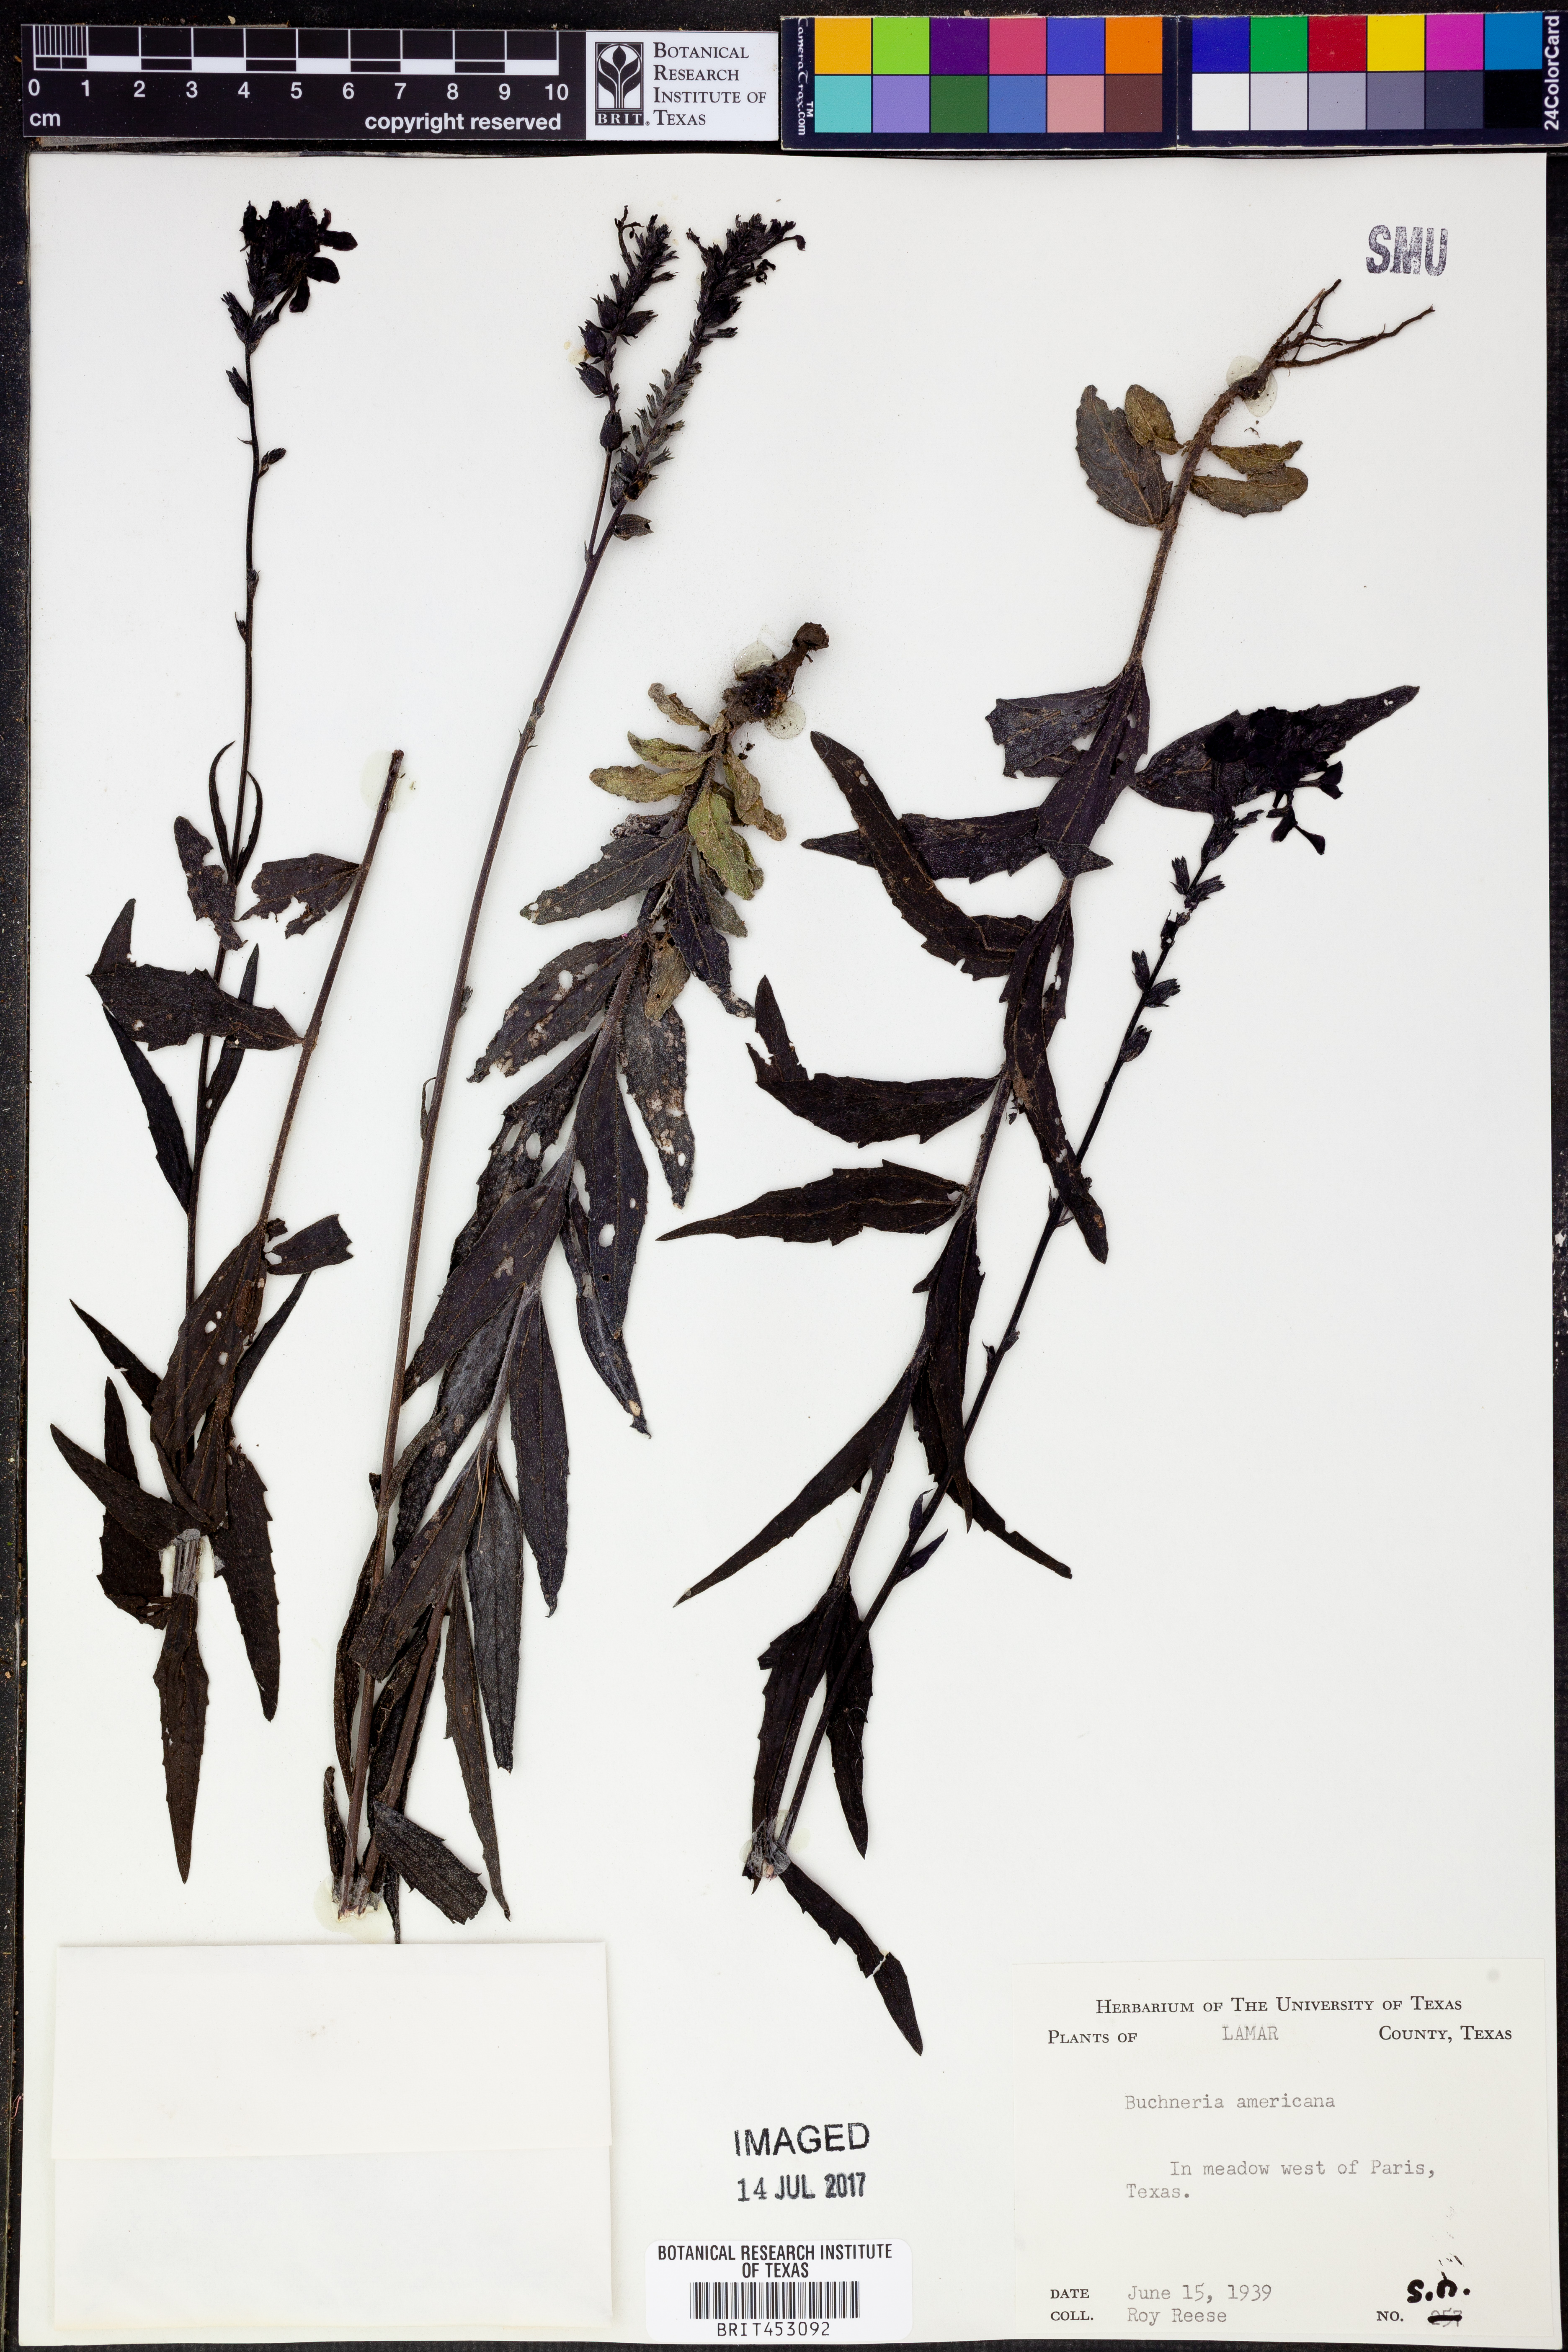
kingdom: Plantae
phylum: Tracheophyta
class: Magnoliopsida
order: Lamiales
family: Orobanchaceae
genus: Buchnera
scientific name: Buchnera americana
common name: American bluehearts
